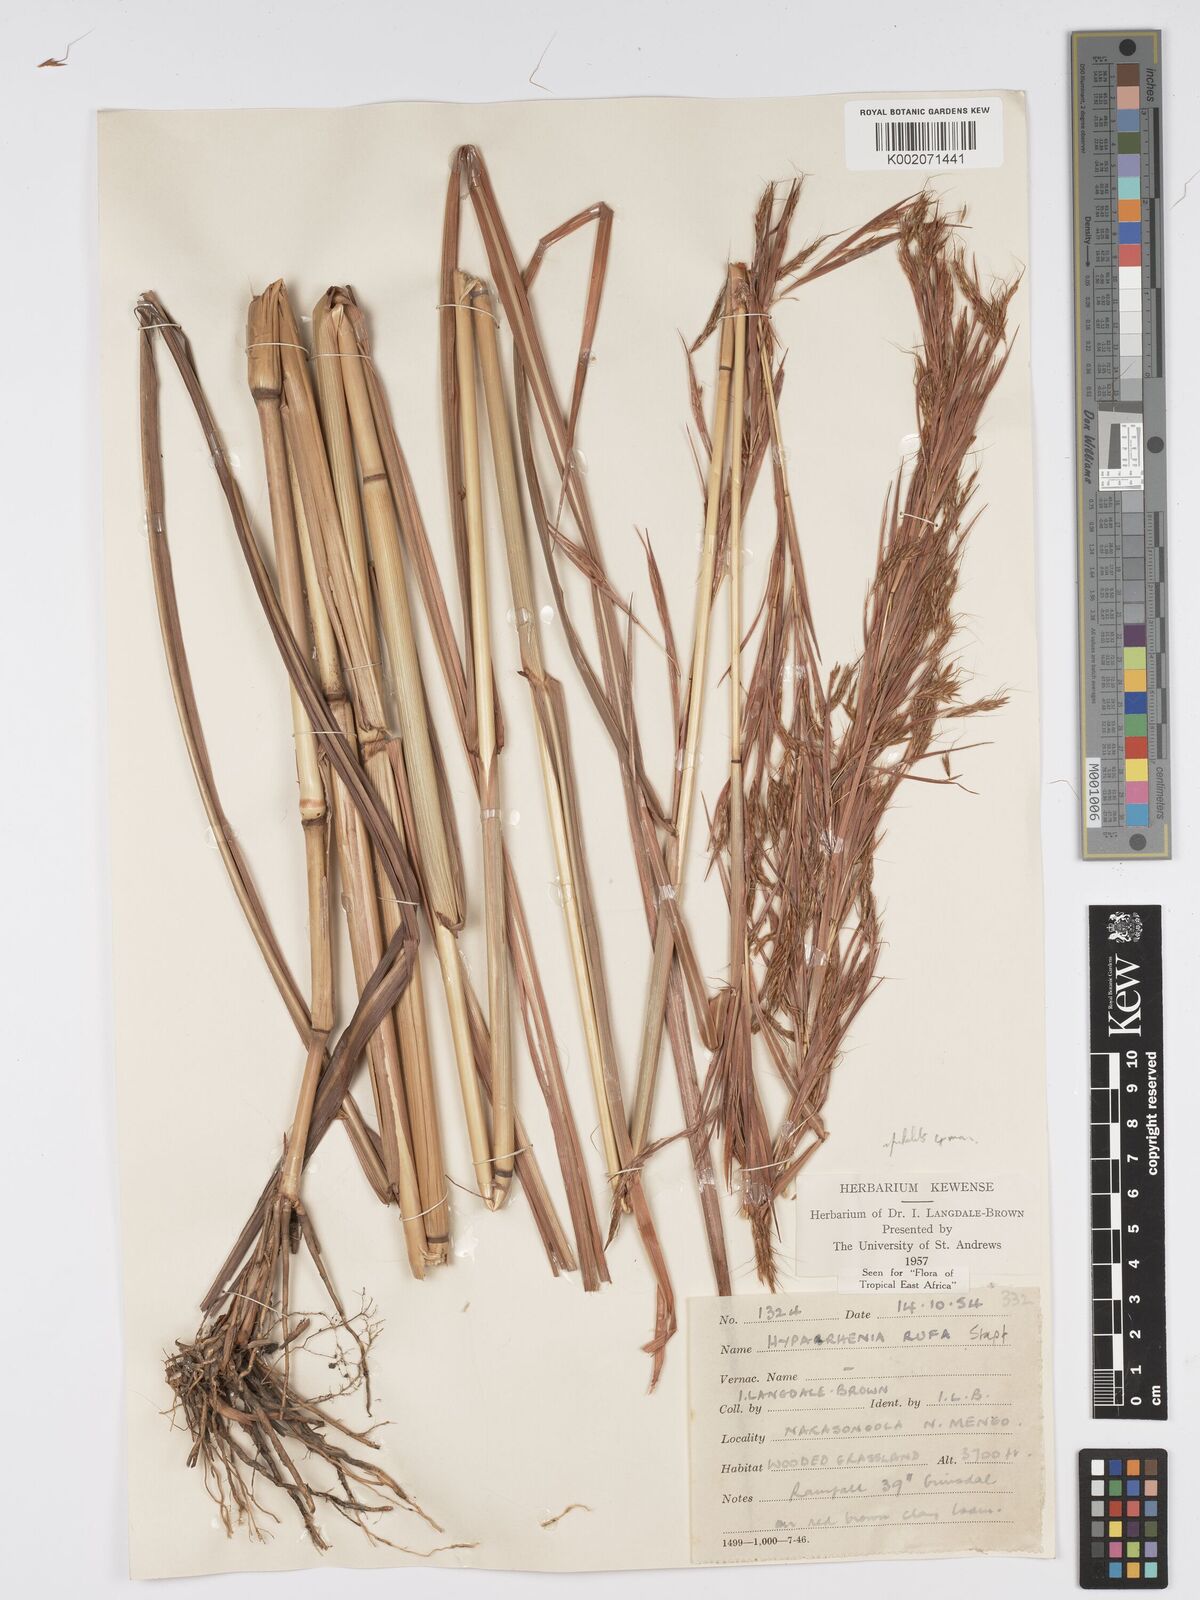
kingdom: Plantae
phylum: Tracheophyta
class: Liliopsida
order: Poales
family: Poaceae
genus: Hyparrhenia
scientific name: Hyparrhenia rufa
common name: Jaraguagrass
